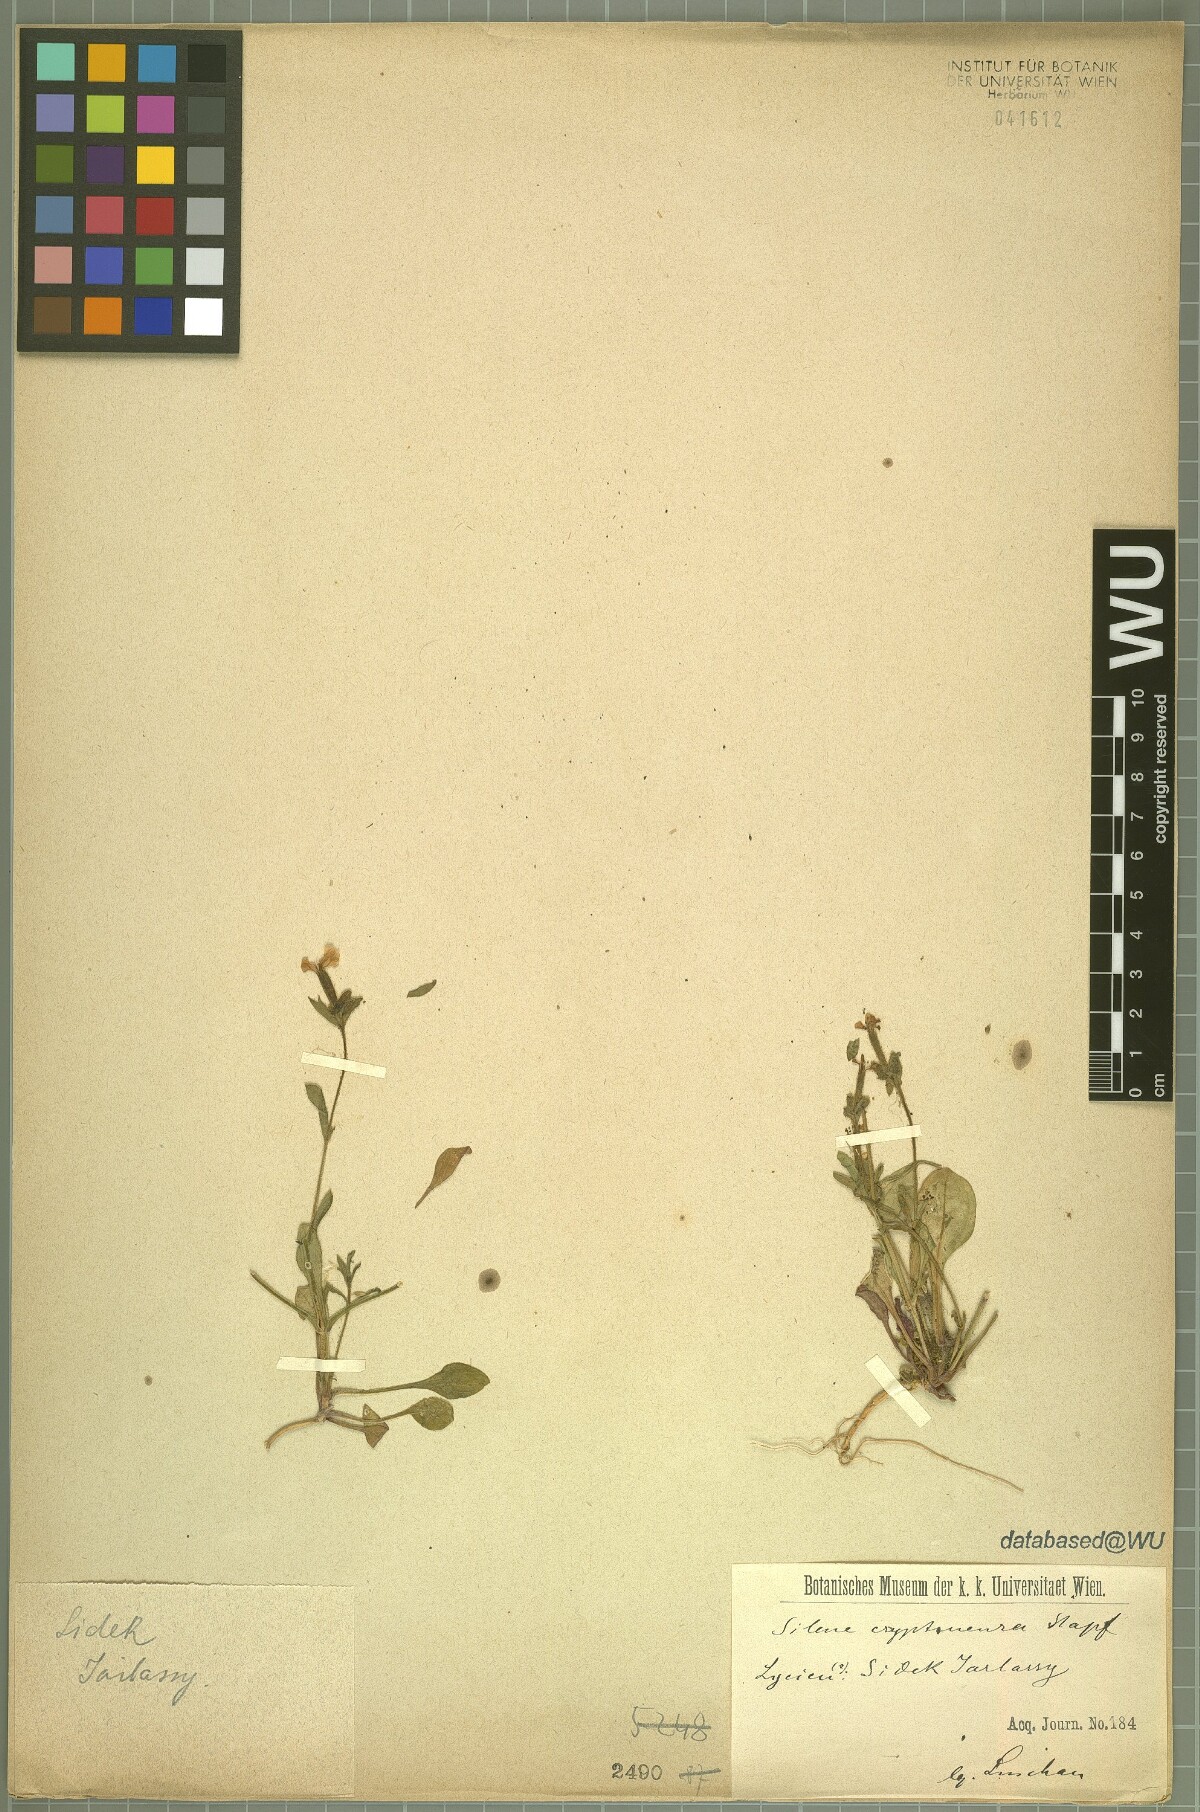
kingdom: Plantae
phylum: Tracheophyta
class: Magnoliopsida
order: Caryophyllales
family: Caryophyllaceae
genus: Silene
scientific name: Silene cryptoneura
